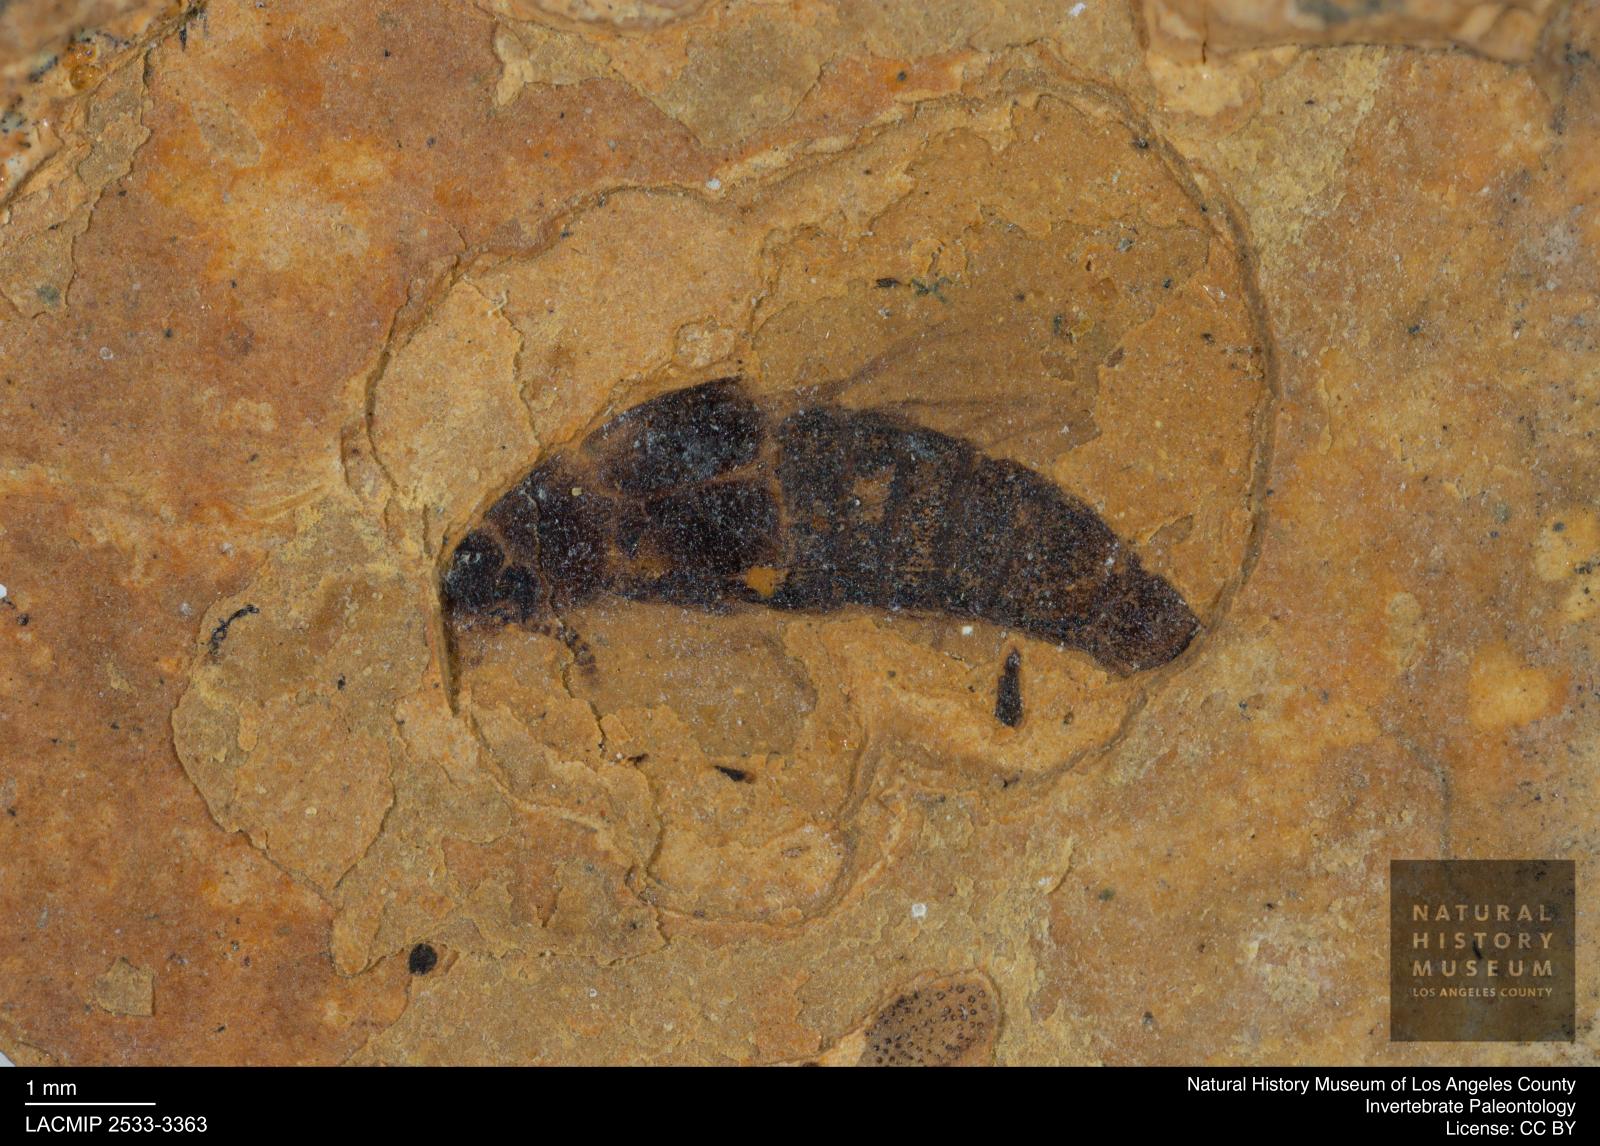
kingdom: Animalia
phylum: Arthropoda
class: Insecta
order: Coleoptera
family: Staphylinidae
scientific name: Staphylinidae
